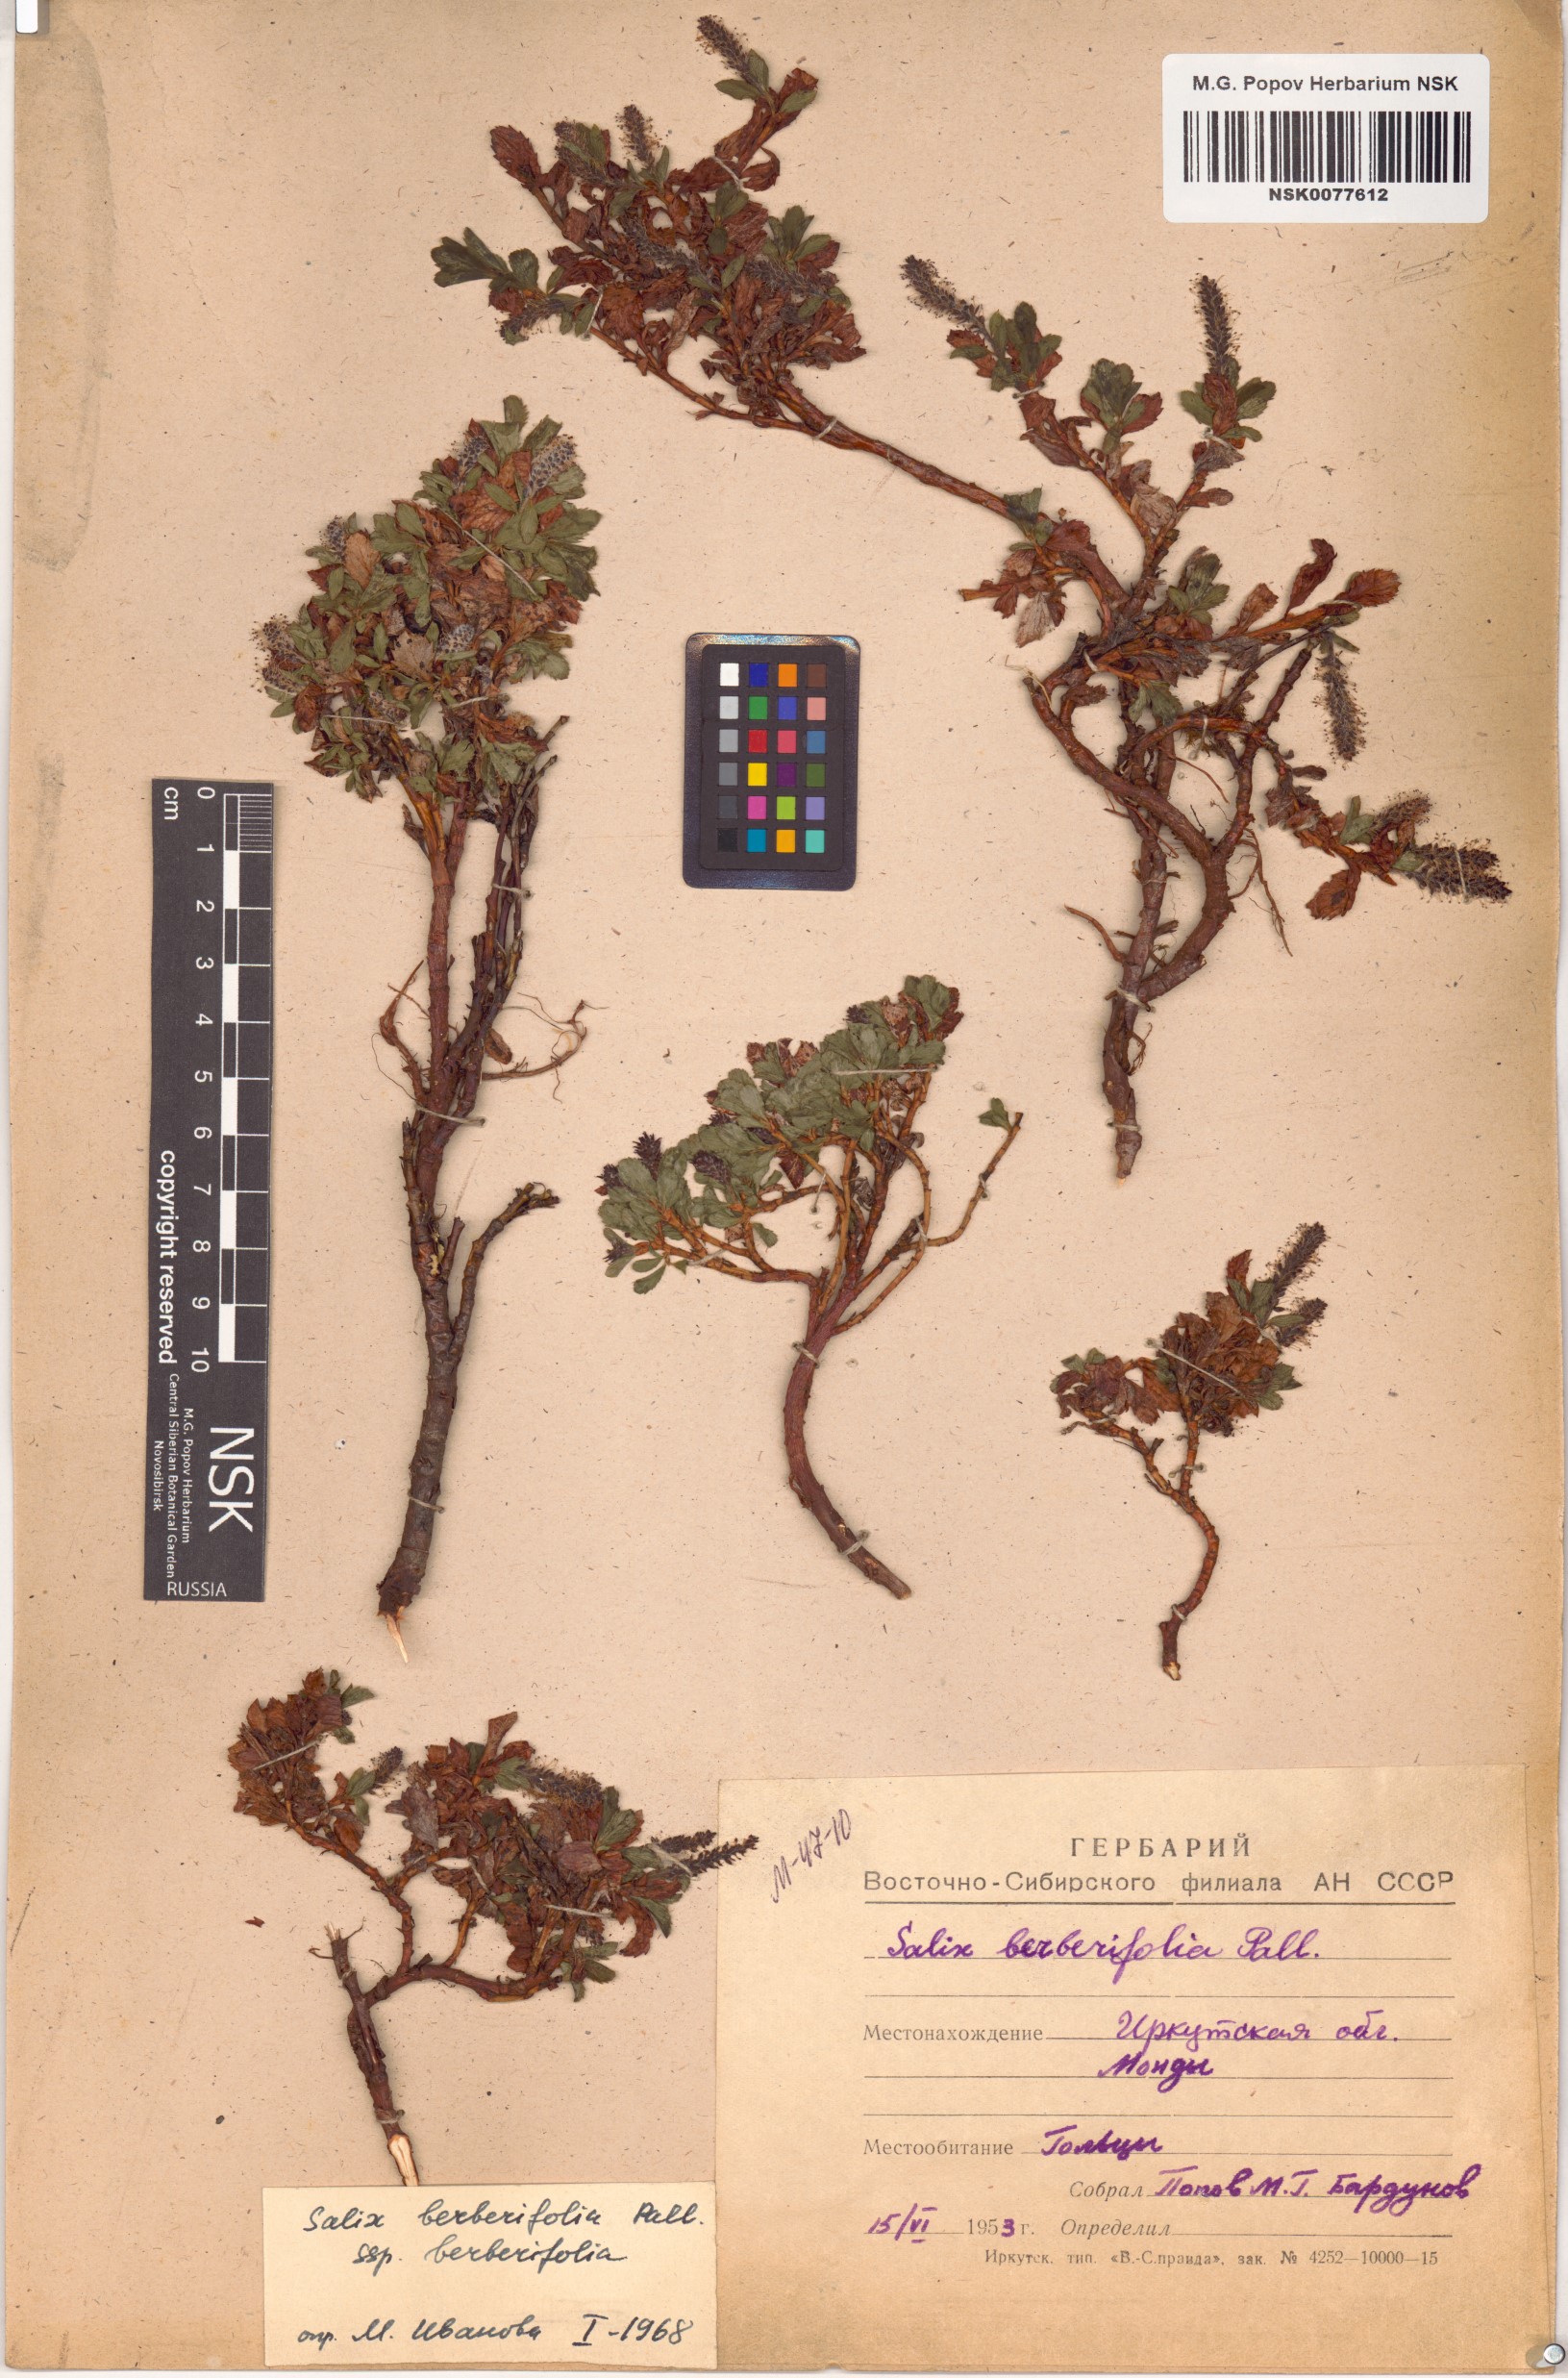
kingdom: Plantae
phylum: Tracheophyta
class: Magnoliopsida
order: Malpighiales
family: Salicaceae
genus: Salix
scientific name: Salix berberifolia
